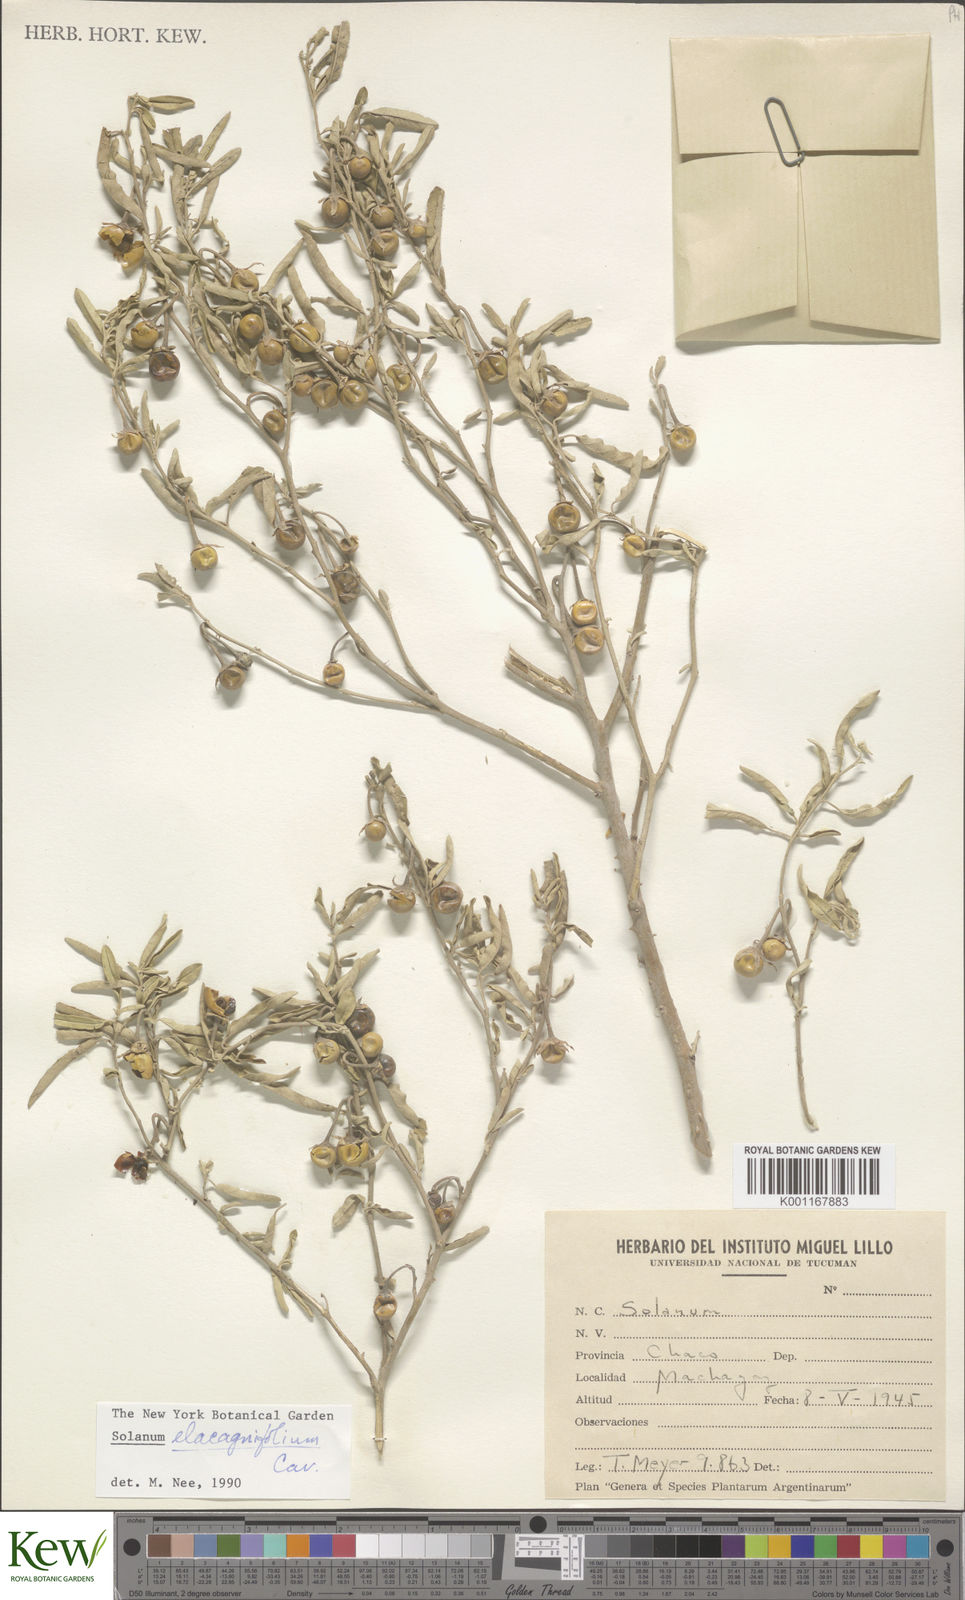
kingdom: Plantae
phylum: Tracheophyta
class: Magnoliopsida
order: Solanales
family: Solanaceae
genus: Solanum
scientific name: Solanum elaeagnifolium
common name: Silverleaf nightshade
